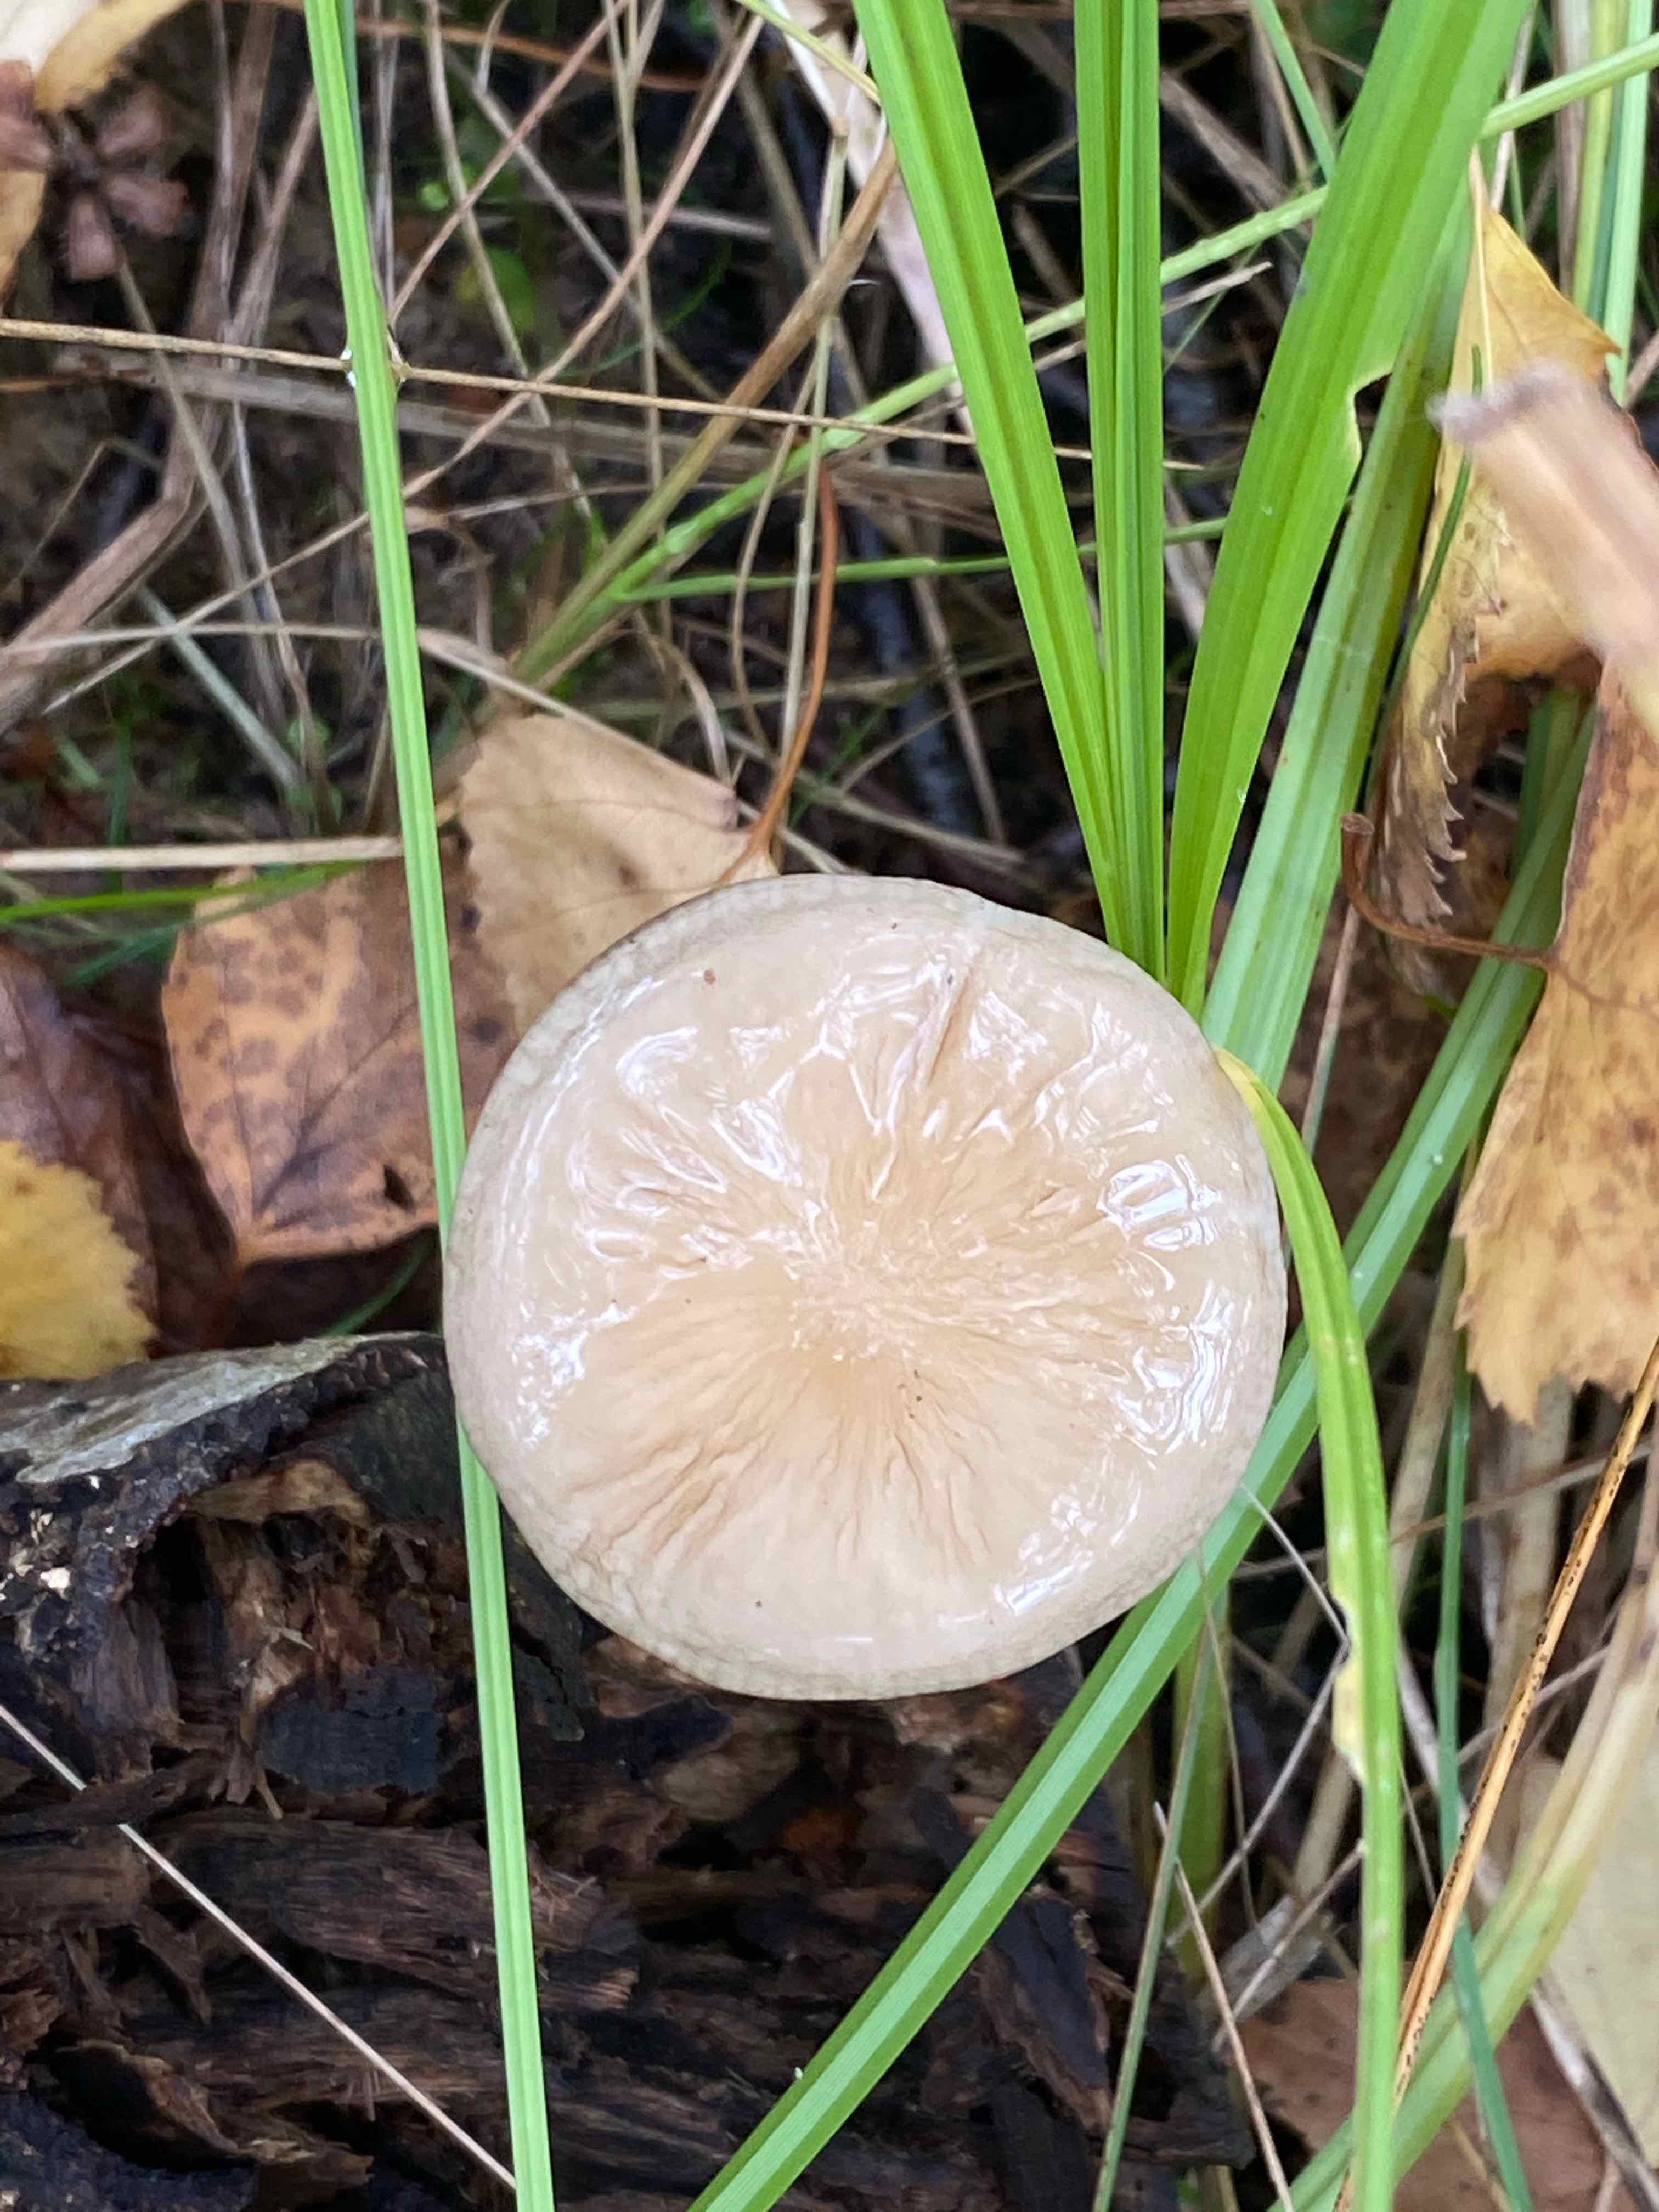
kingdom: Fungi
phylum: Basidiomycota
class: Agaricomycetes
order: Agaricales
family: Physalacriaceae
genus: Hymenopellis
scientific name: Hymenopellis radicata
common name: almindelig pælerodshat
